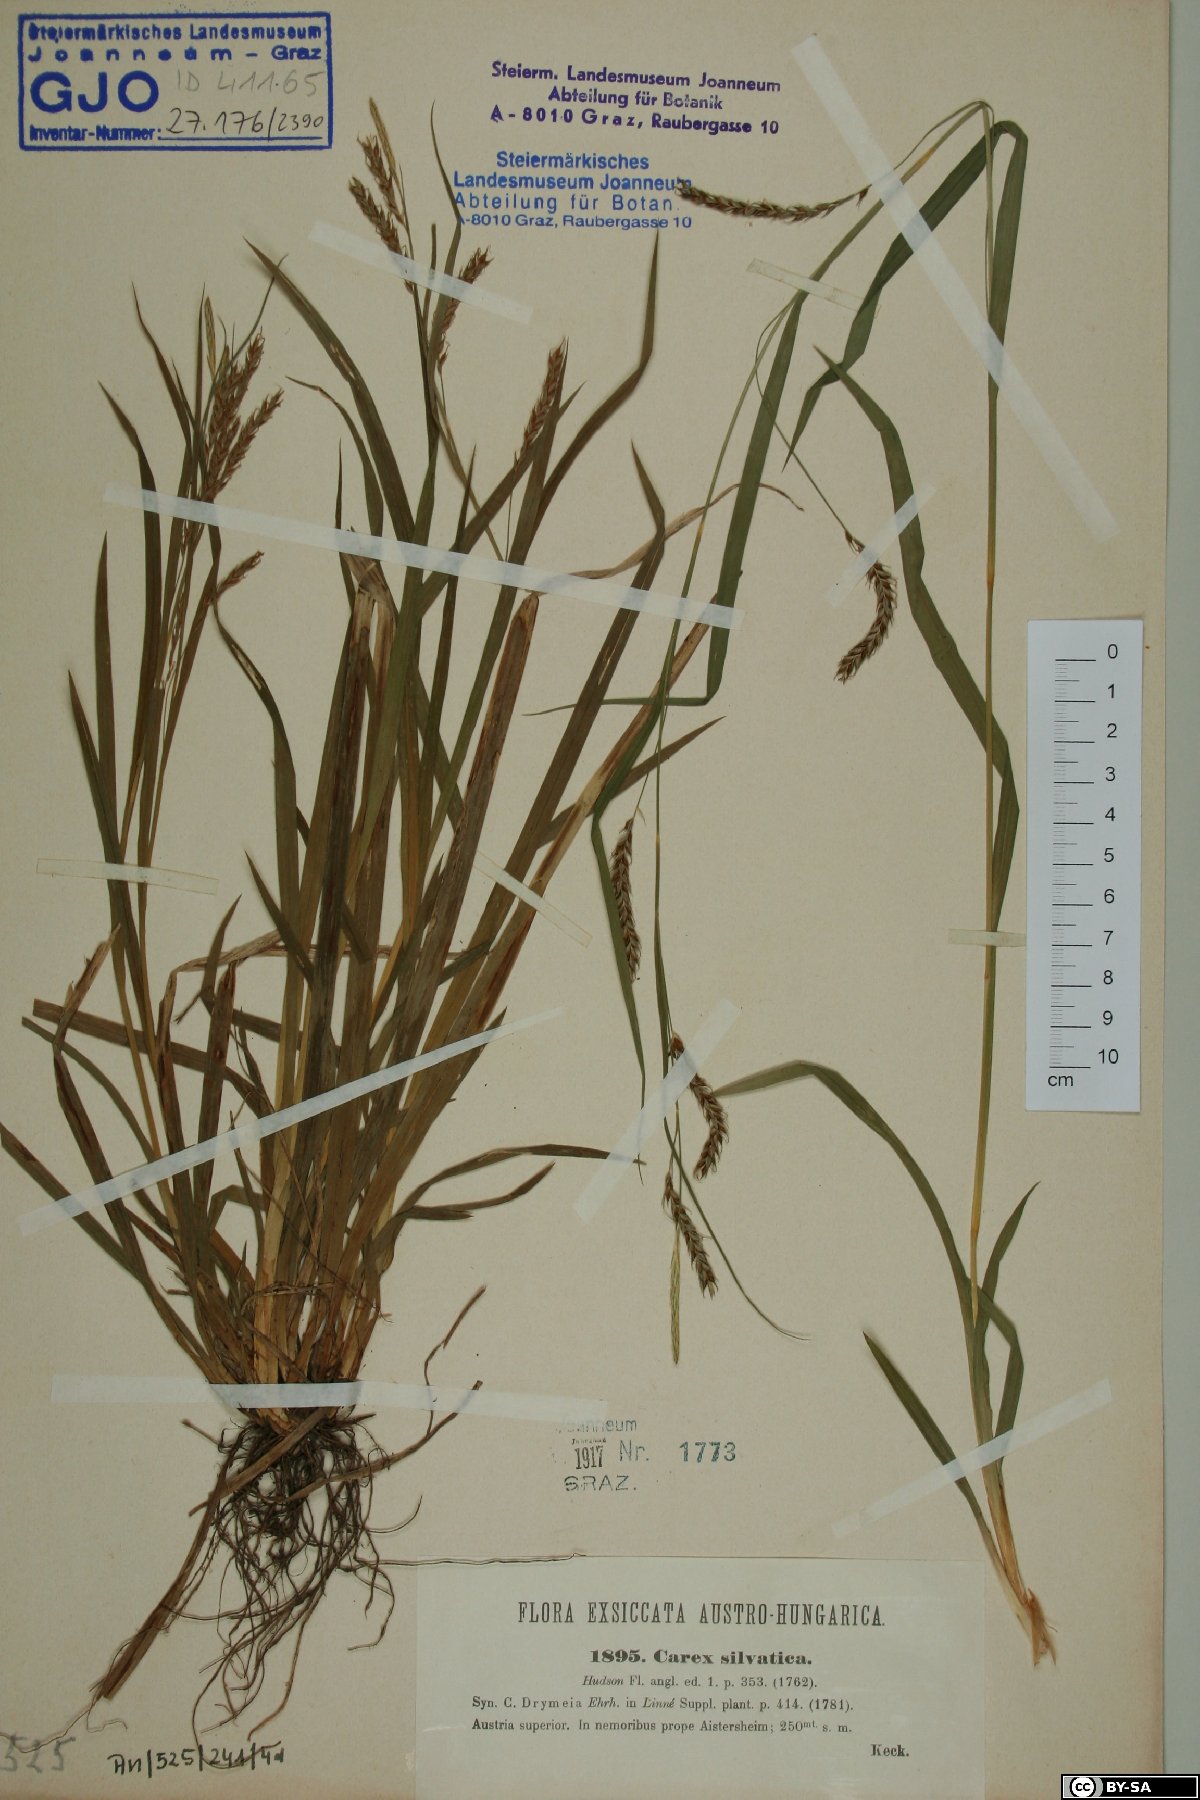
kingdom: Plantae
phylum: Tracheophyta
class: Liliopsida
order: Poales
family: Cyperaceae
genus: Carex
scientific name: Carex sylvatica
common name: Wood-sedge
